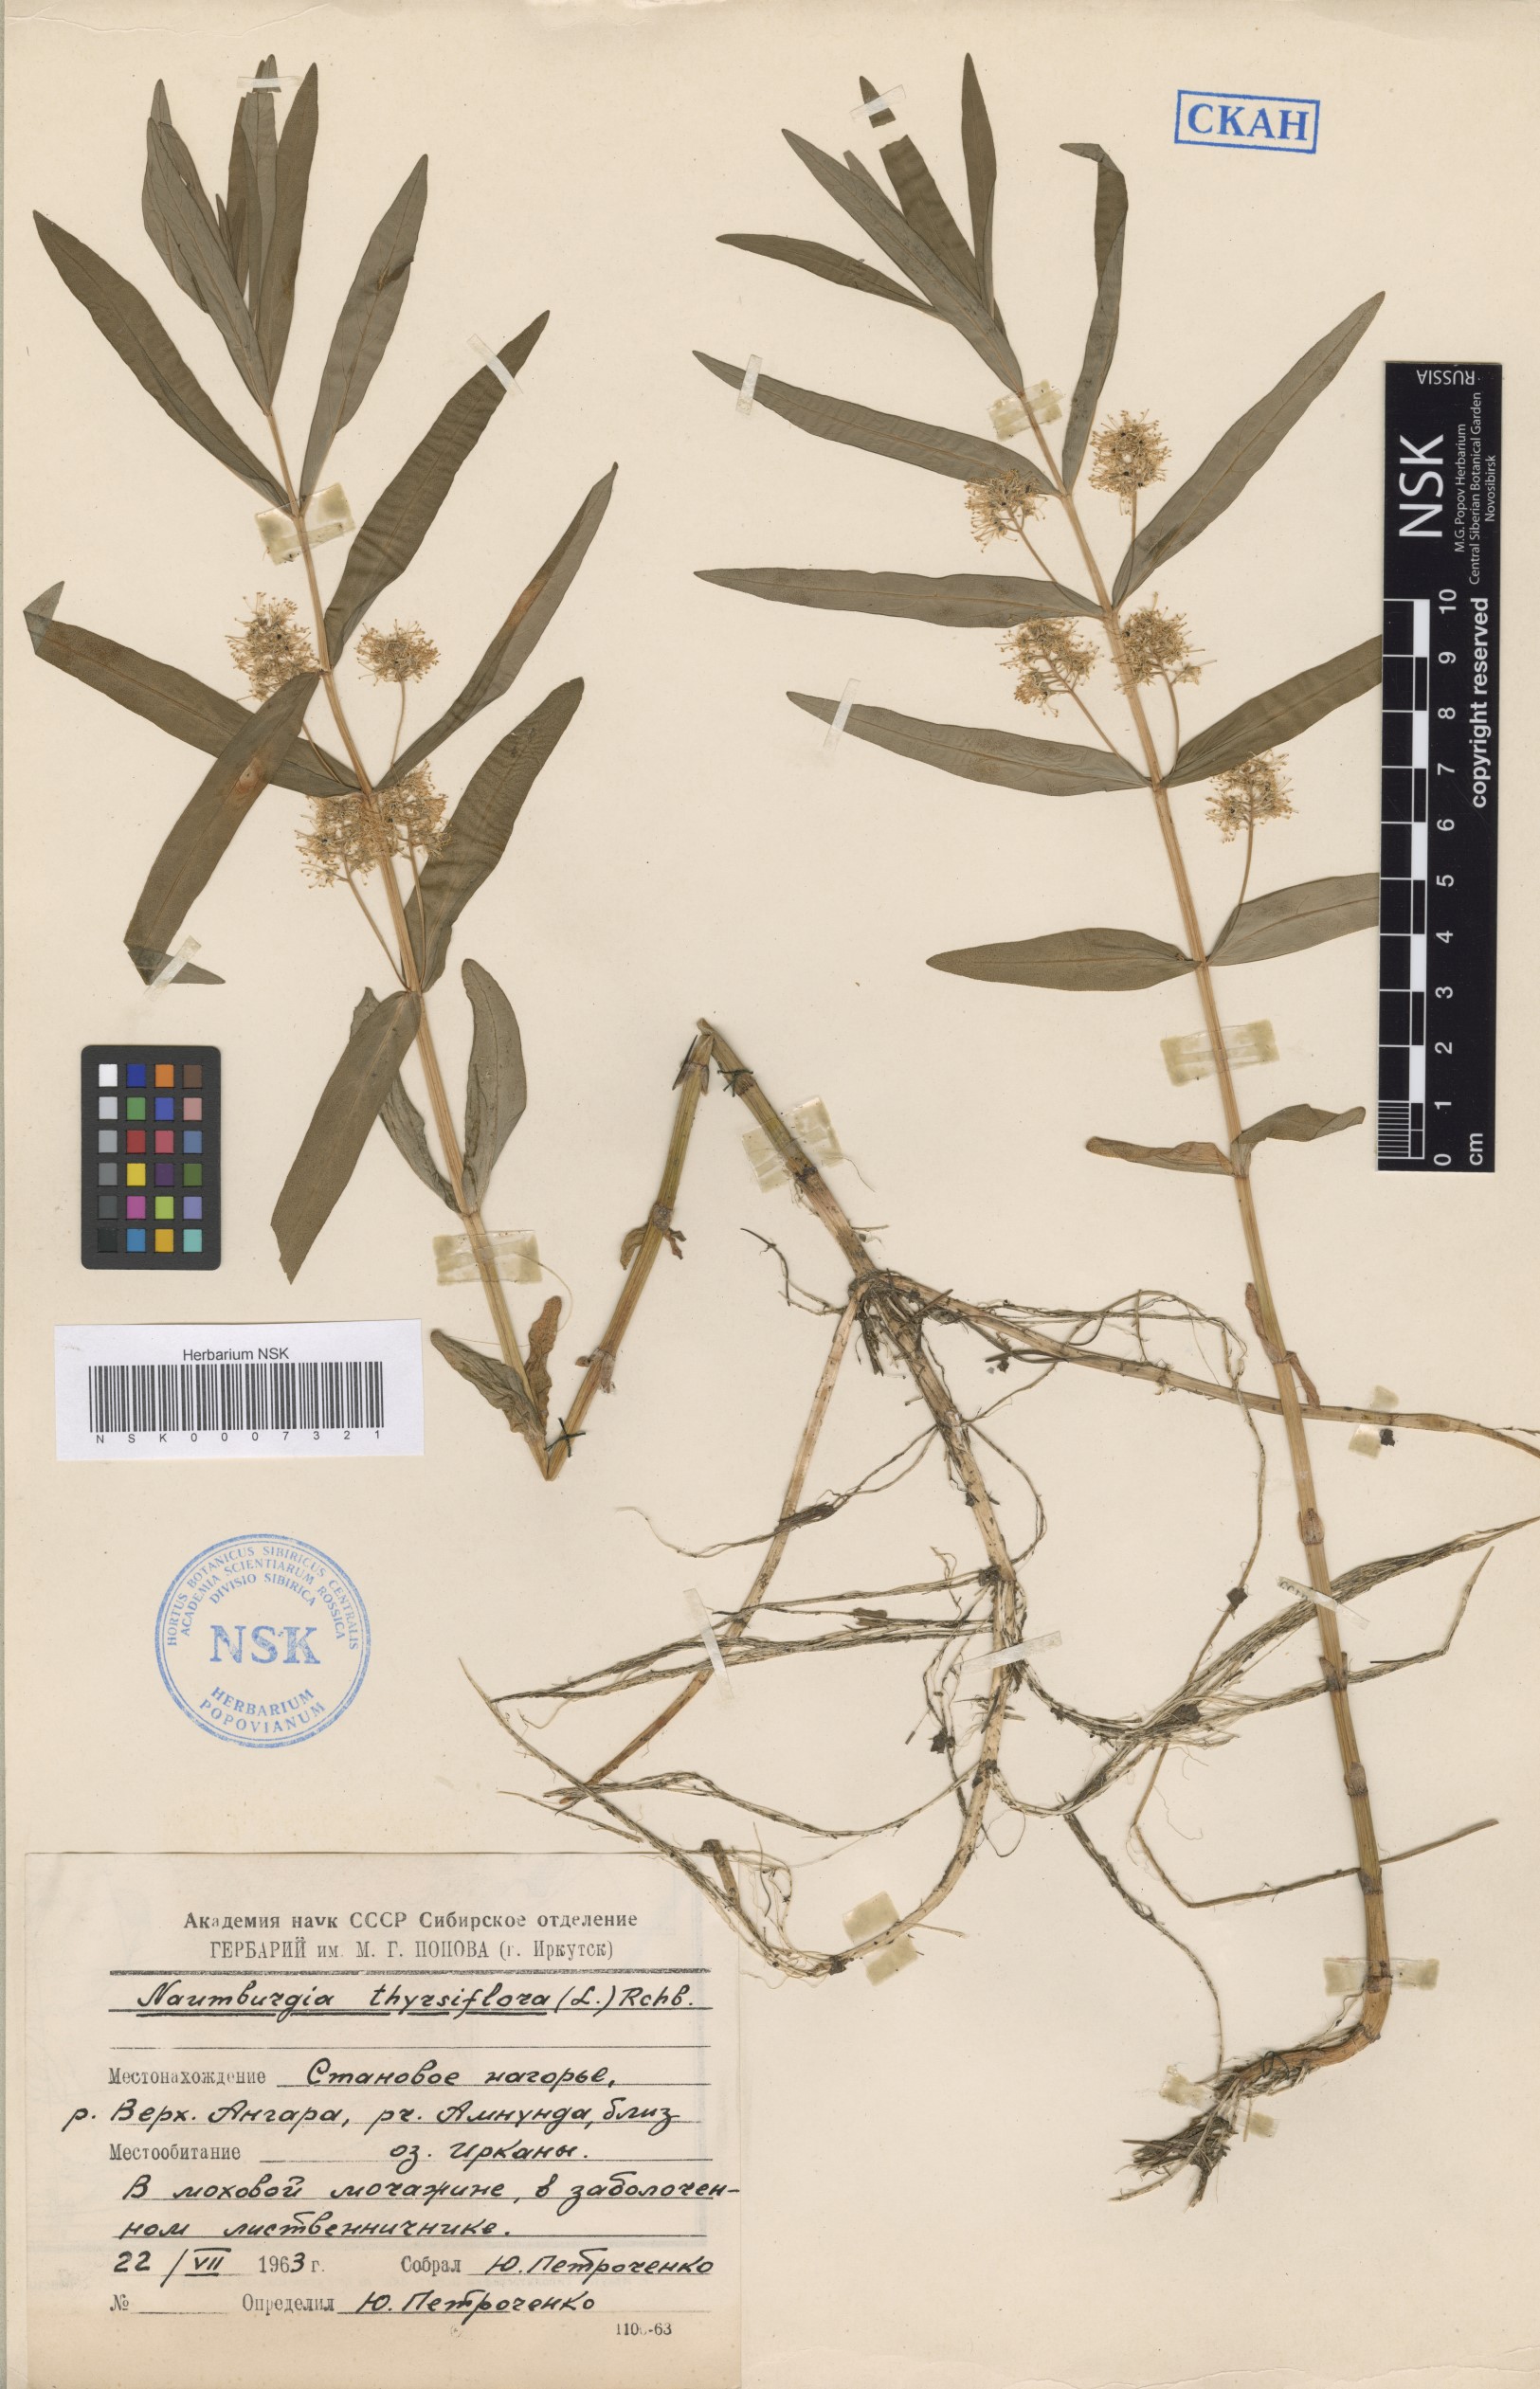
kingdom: Plantae
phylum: Tracheophyta
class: Magnoliopsida
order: Ericales
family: Primulaceae
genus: Lysimachia
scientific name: Lysimachia thyrsiflora
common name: Tufted loosestrife
